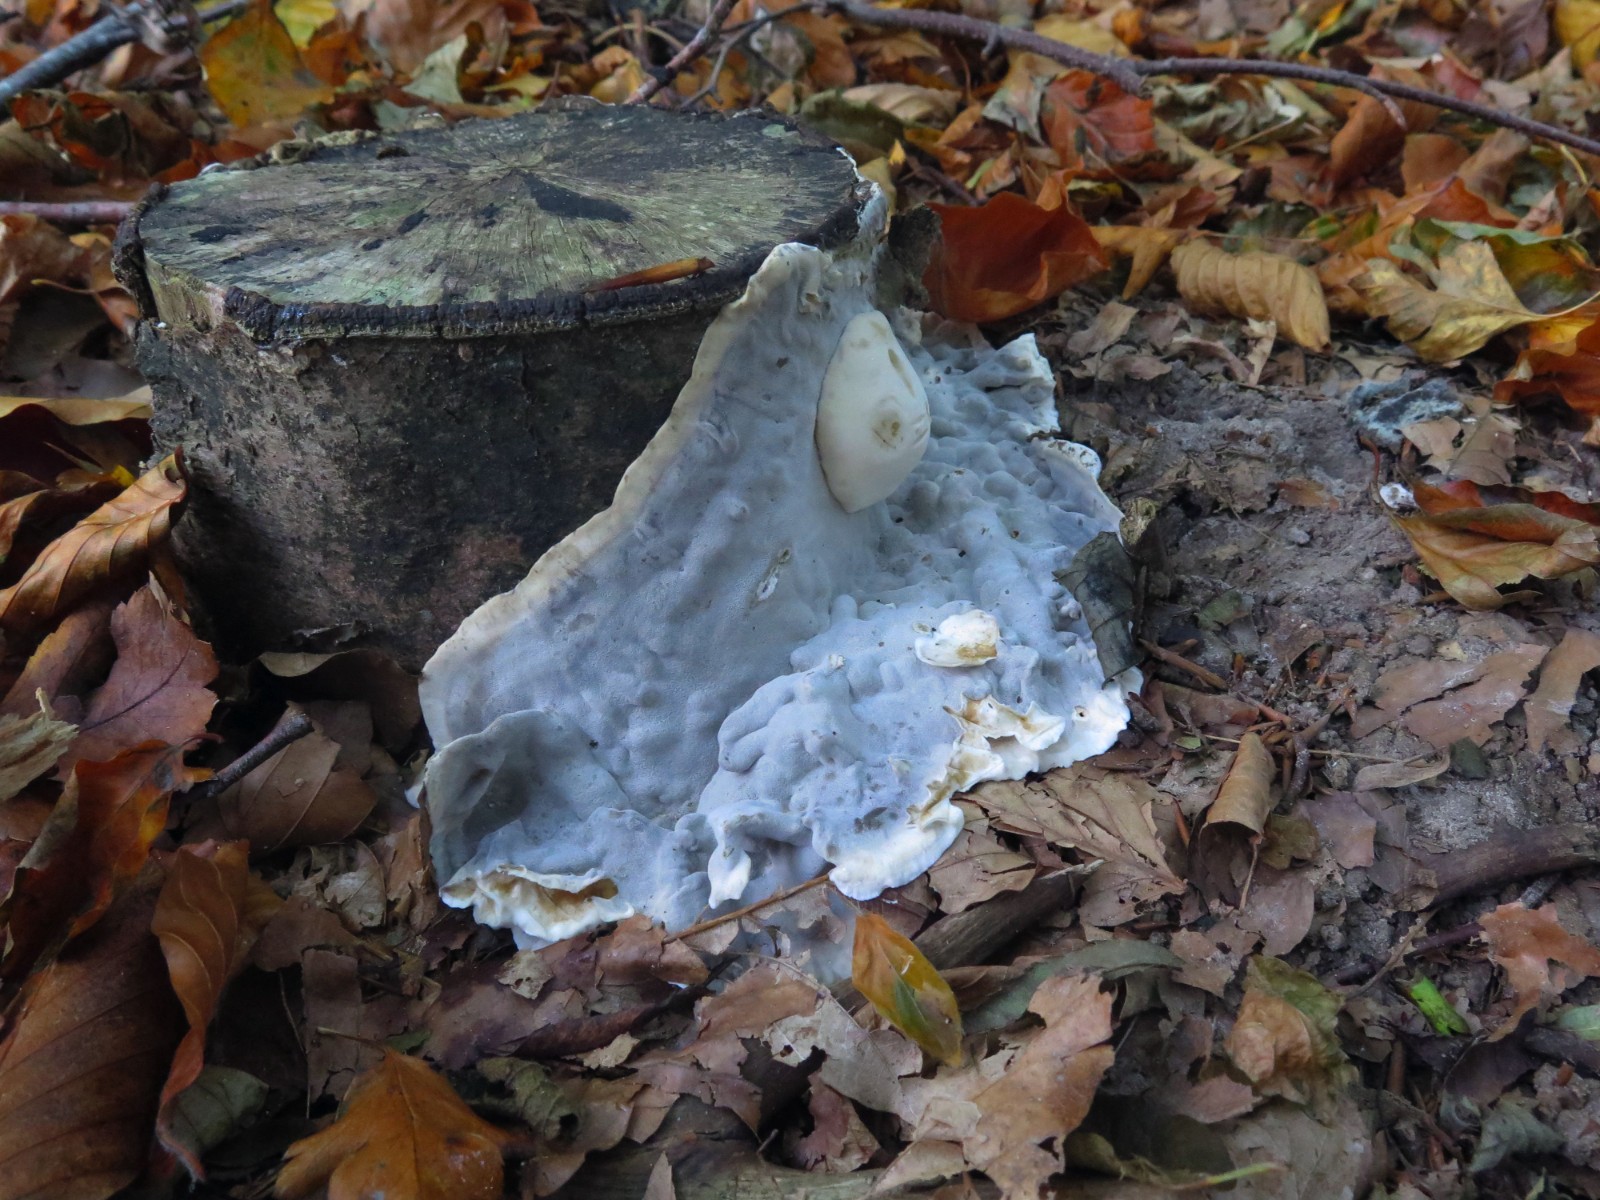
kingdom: Fungi
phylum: Basidiomycota
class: Agaricomycetes
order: Polyporales
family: Phanerochaetaceae
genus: Bjerkandera
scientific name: Bjerkandera adusta
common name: sveden sodporesvamp
